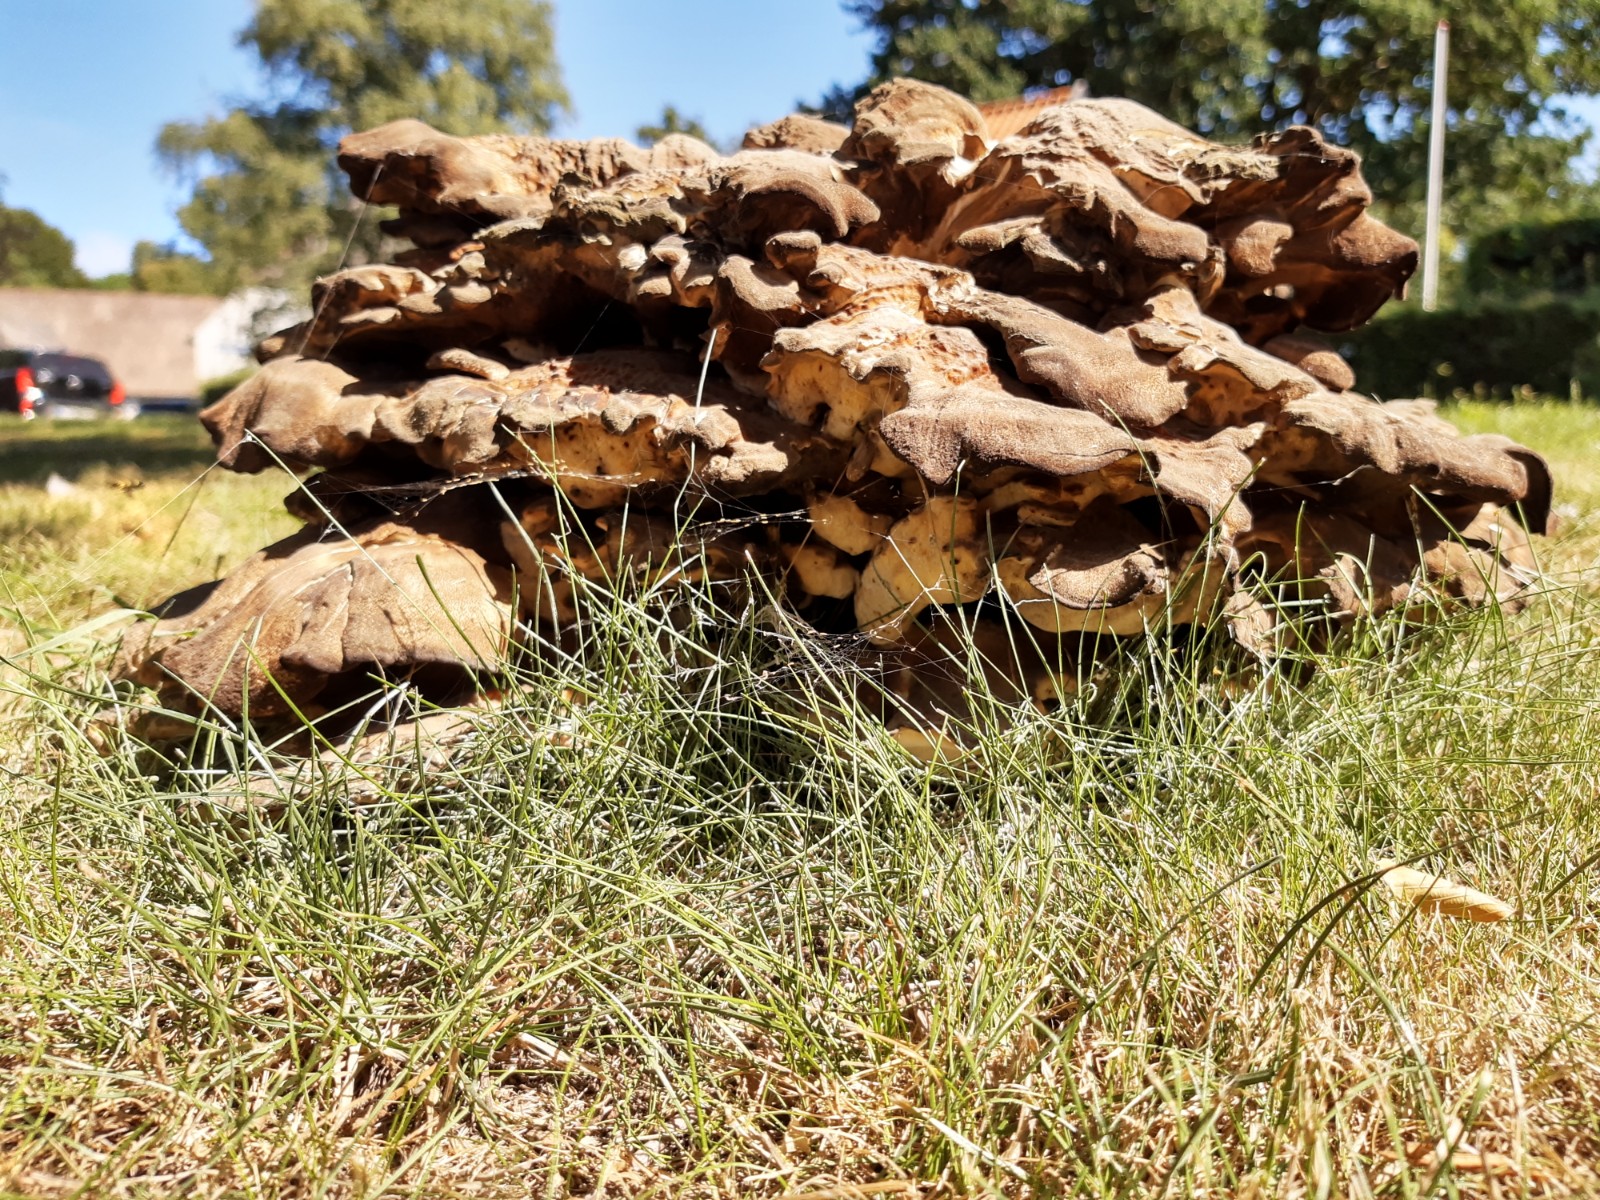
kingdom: Fungi
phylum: Basidiomycota
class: Agaricomycetes
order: Polyporales
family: Meripilaceae
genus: Meripilus
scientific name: Meripilus giganteus
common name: kæmpeporesvamp
